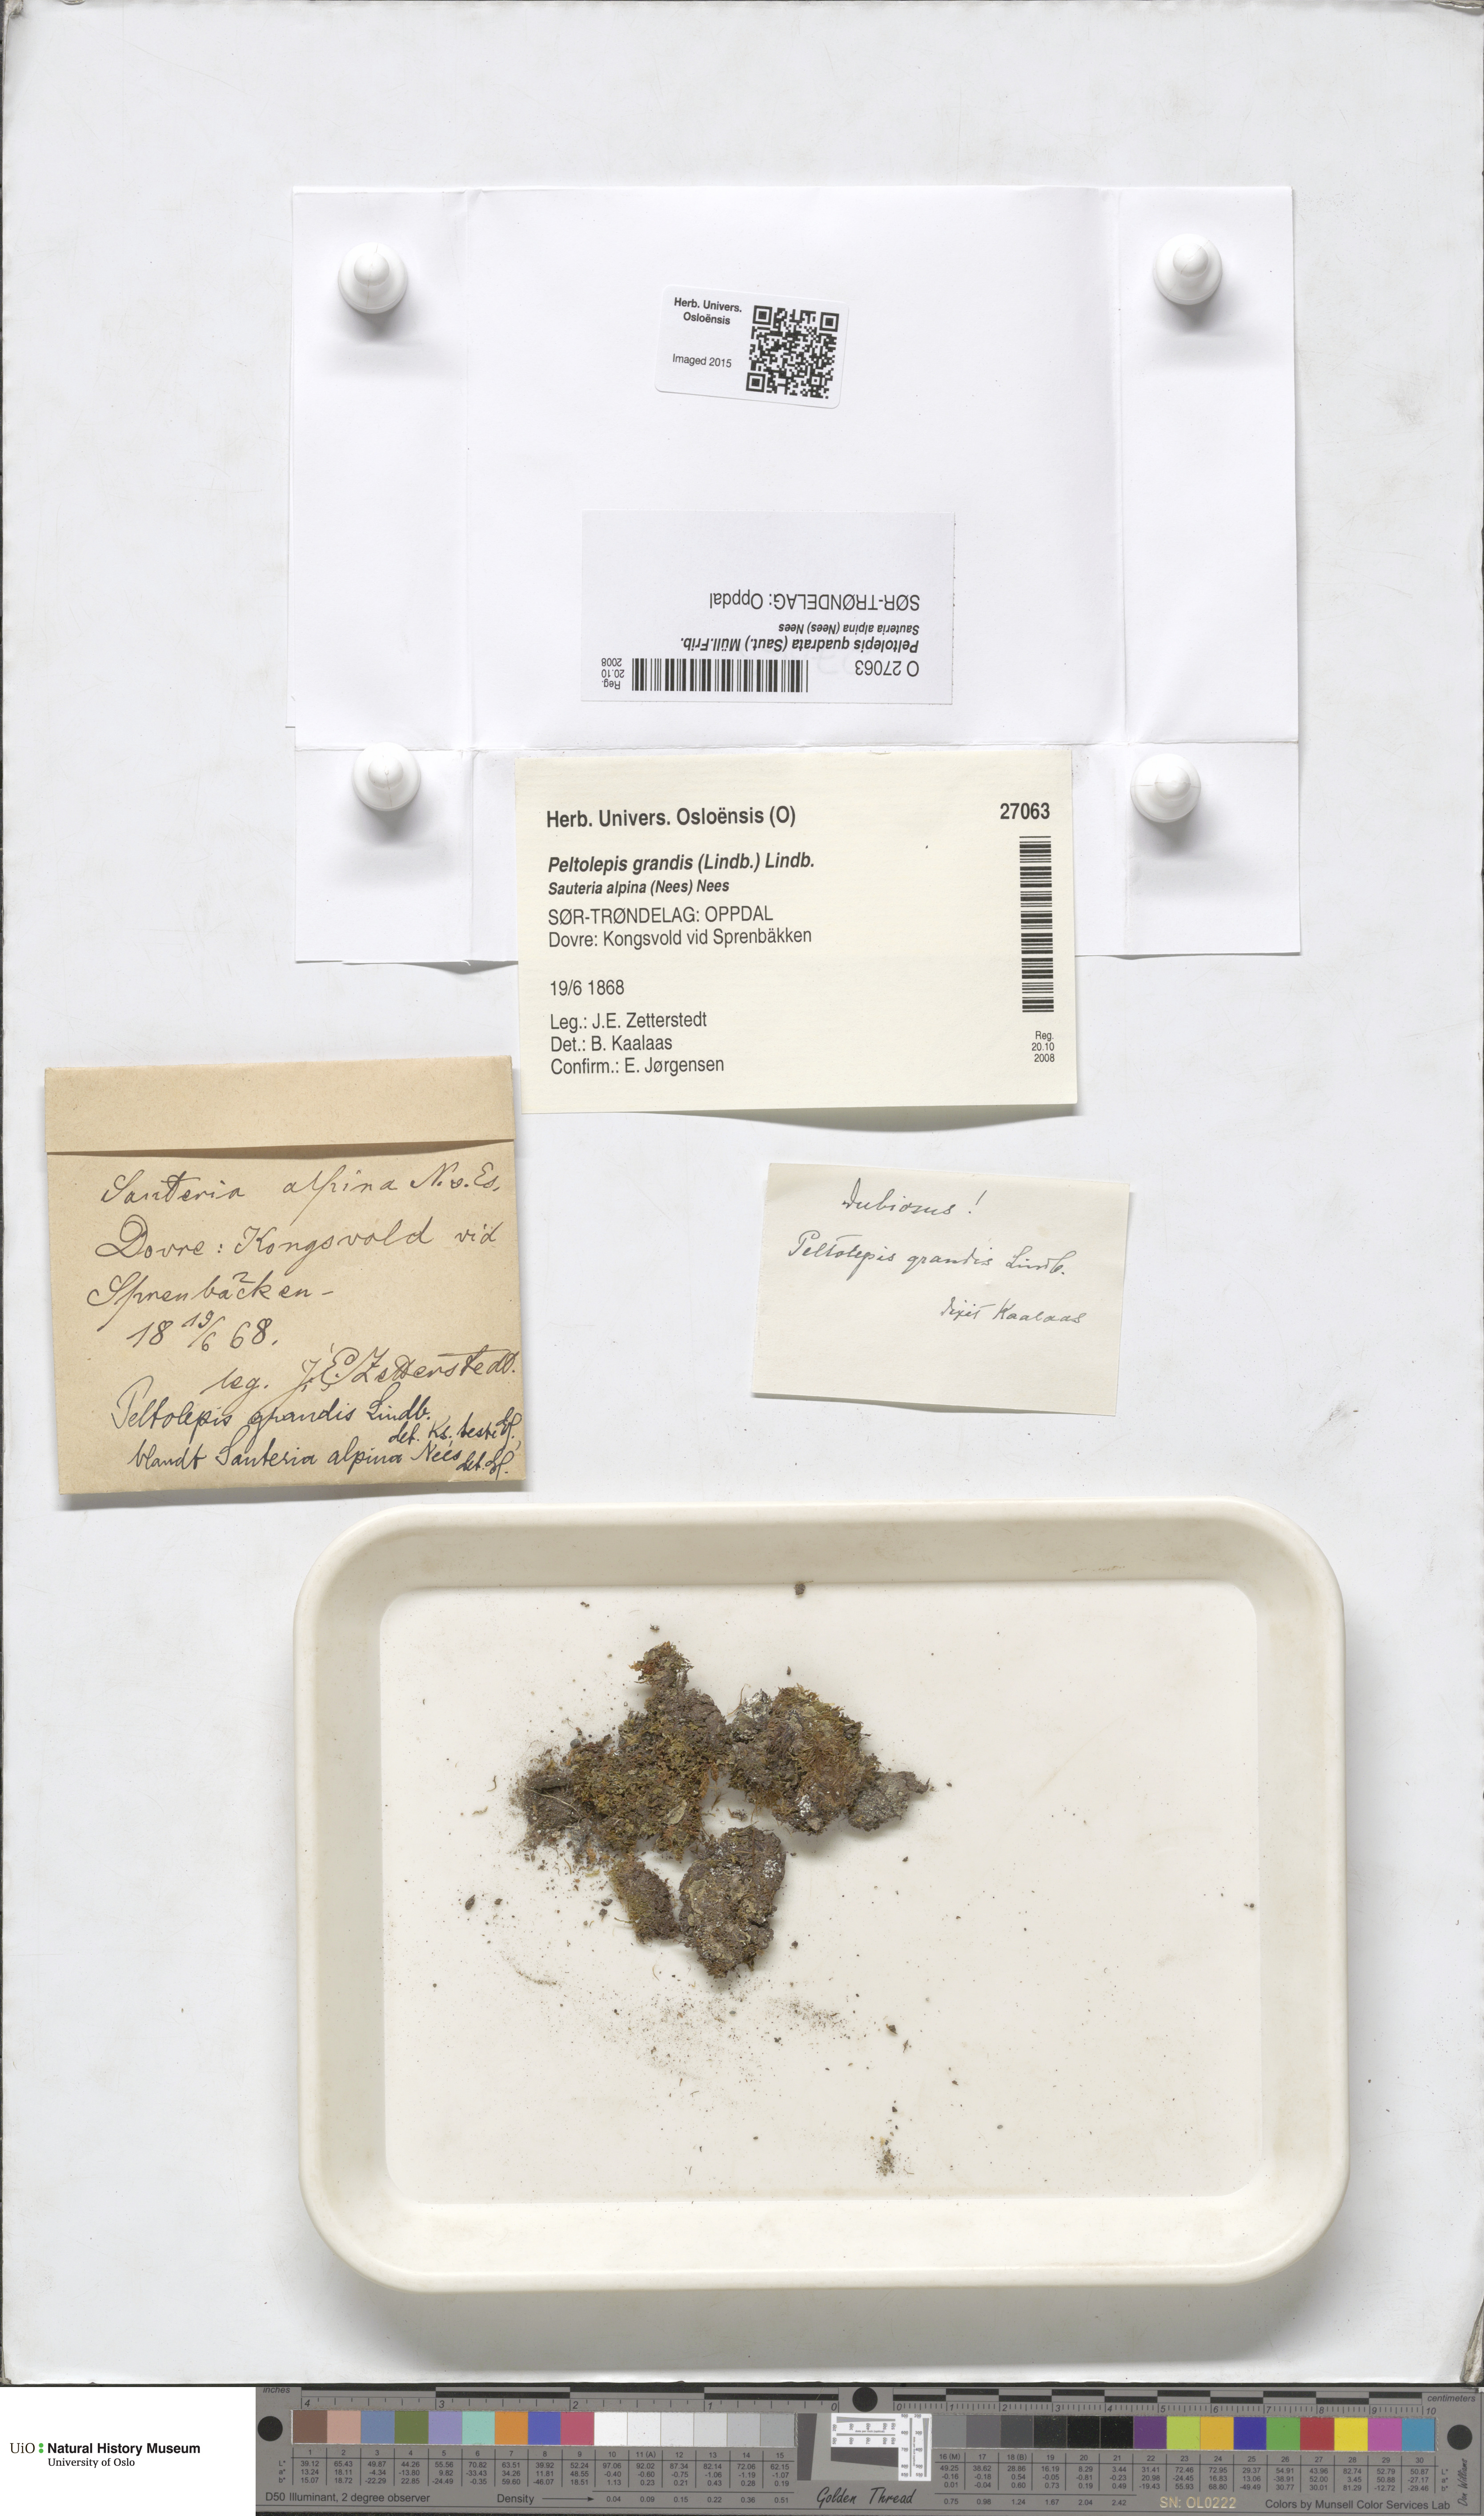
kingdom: Plantae
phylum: Marchantiophyta
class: Marchantiopsida
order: Marchantiales
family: Cleveaceae
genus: Peltolepis
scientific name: Peltolepis quadrata
